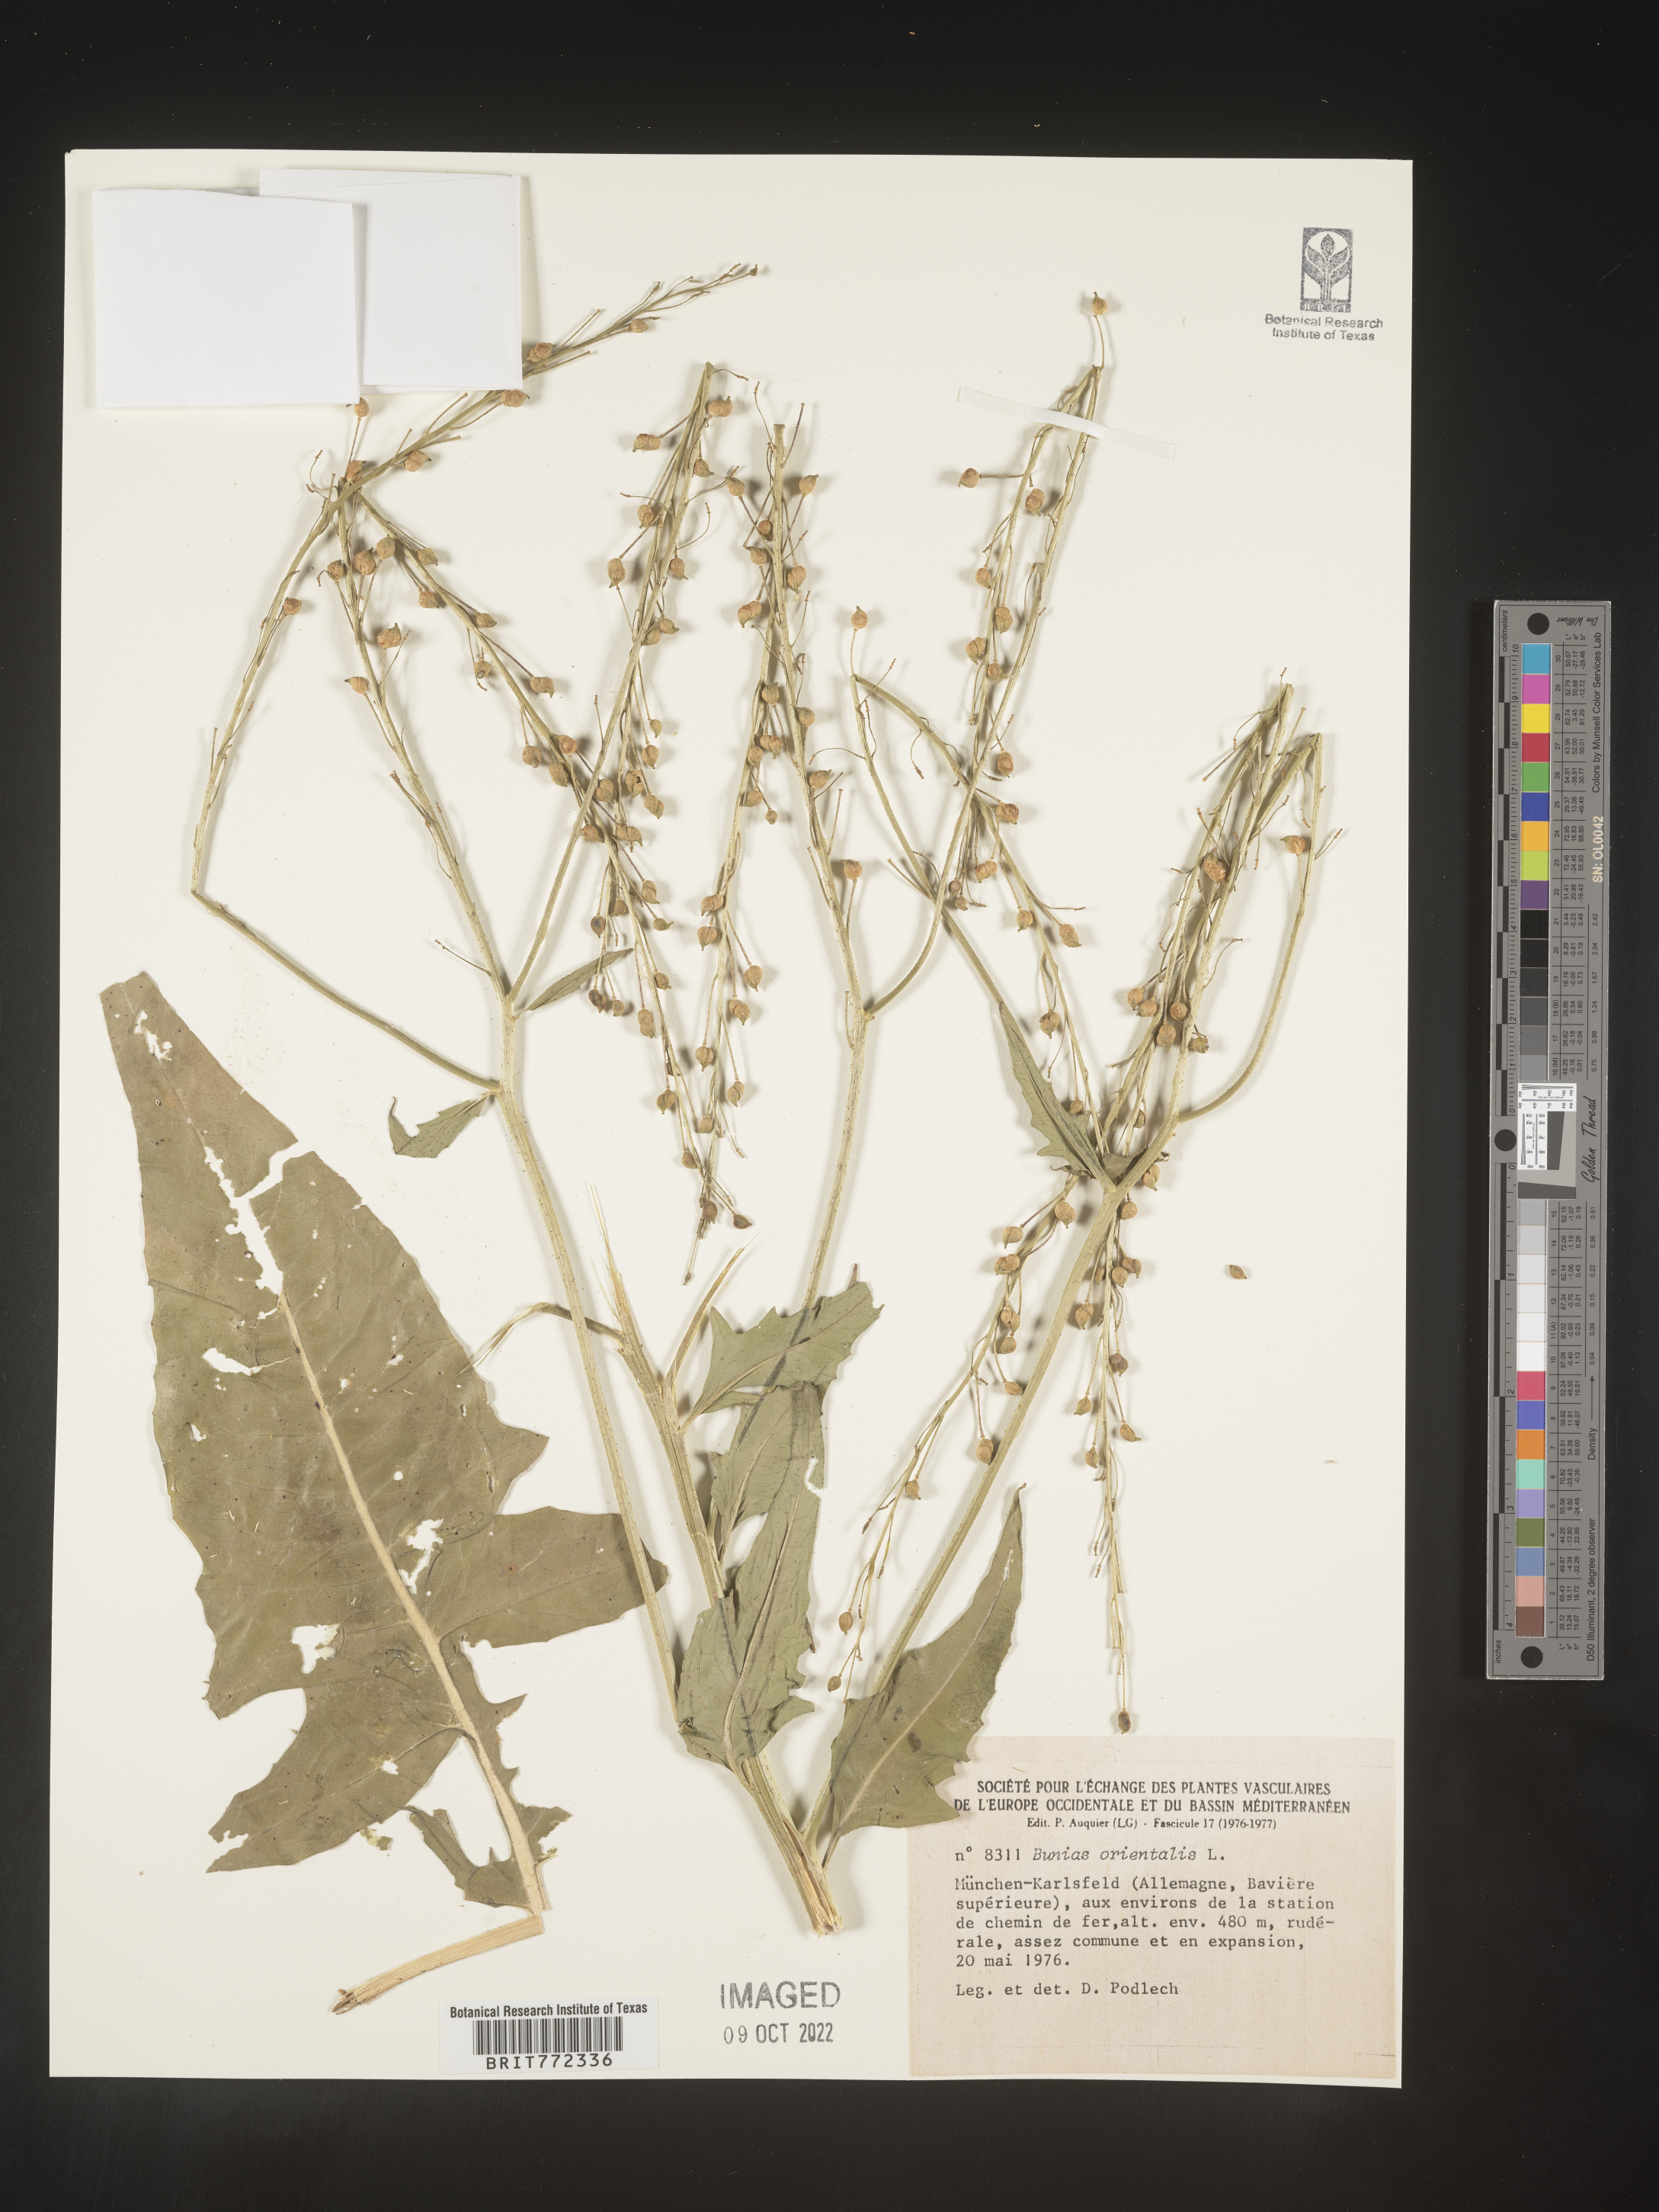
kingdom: Plantae
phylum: Tracheophyta
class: Magnoliopsida
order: Brassicales
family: Brassicaceae
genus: Bunias
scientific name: Bunias
